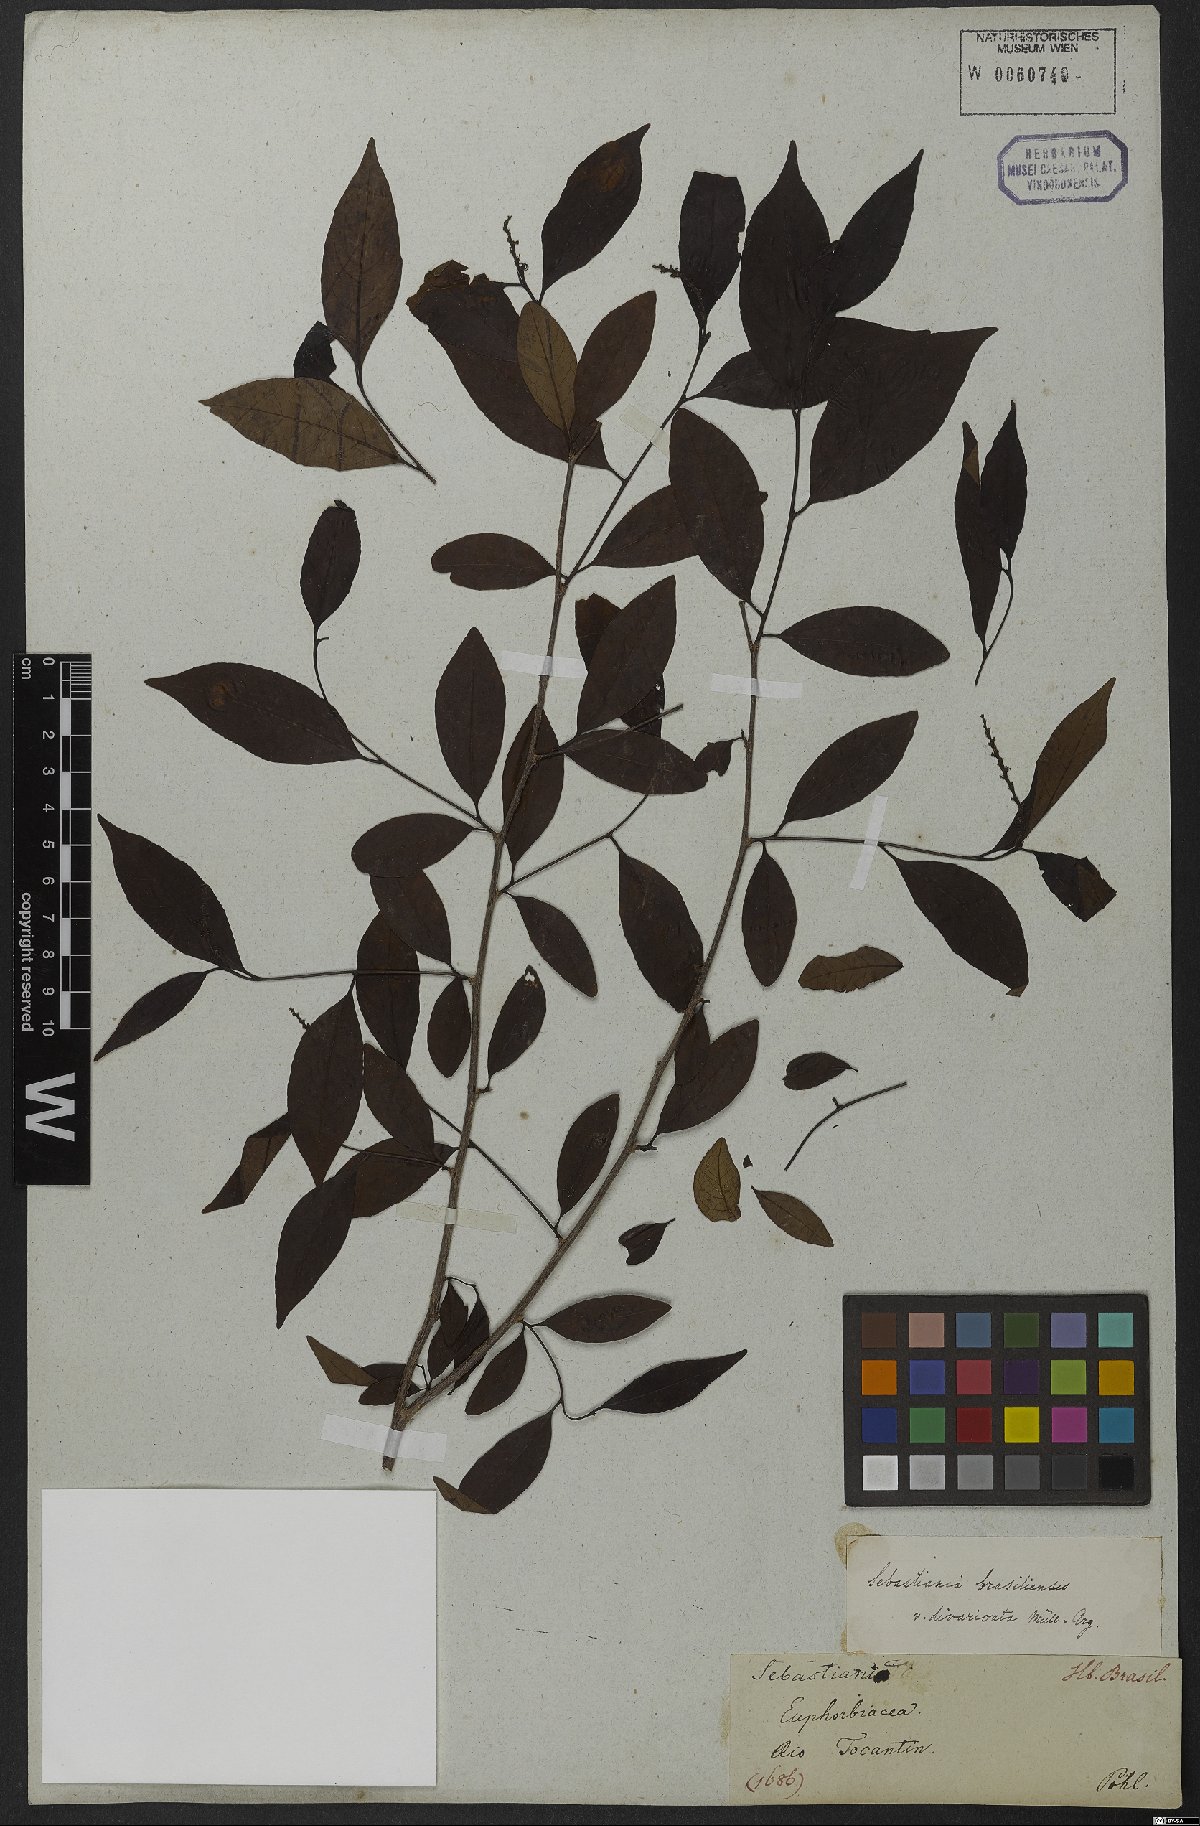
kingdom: Plantae
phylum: Tracheophyta
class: Magnoliopsida
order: Malpighiales
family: Euphorbiaceae
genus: Sebastiania
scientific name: Sebastiania ramosissima
